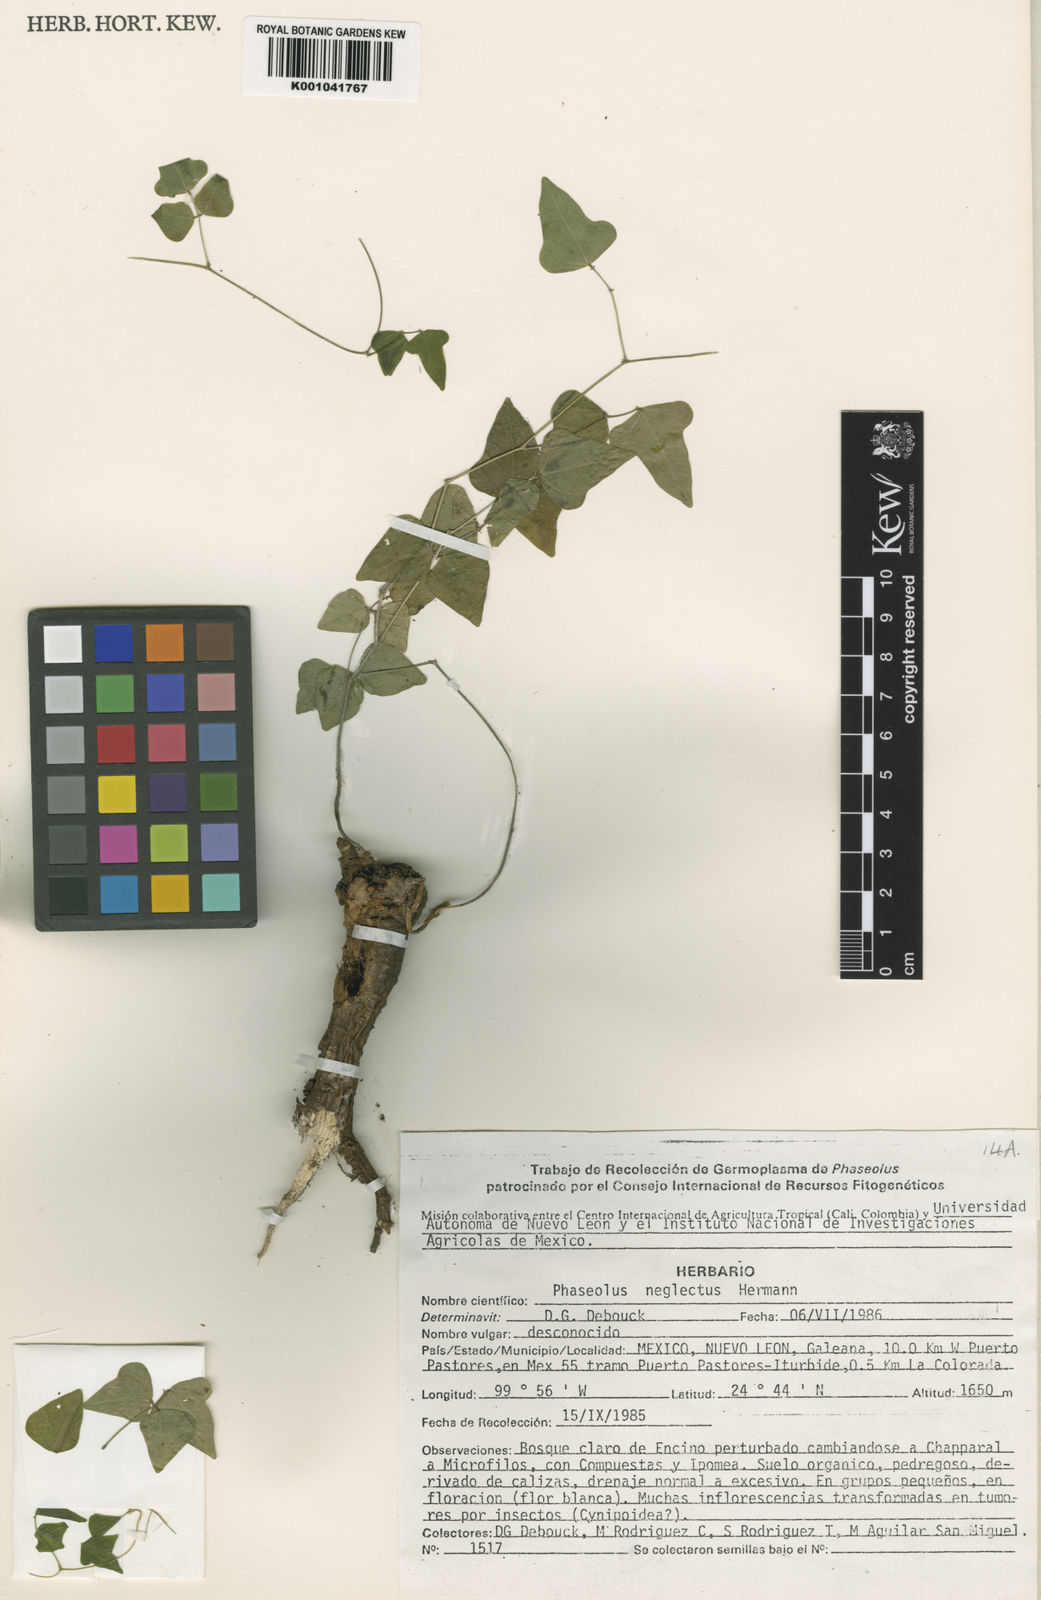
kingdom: Plantae
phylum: Tracheophyta
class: Magnoliopsida
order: Fabales
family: Fabaceae
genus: Phaseolus
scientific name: Phaseolus albiflorus
